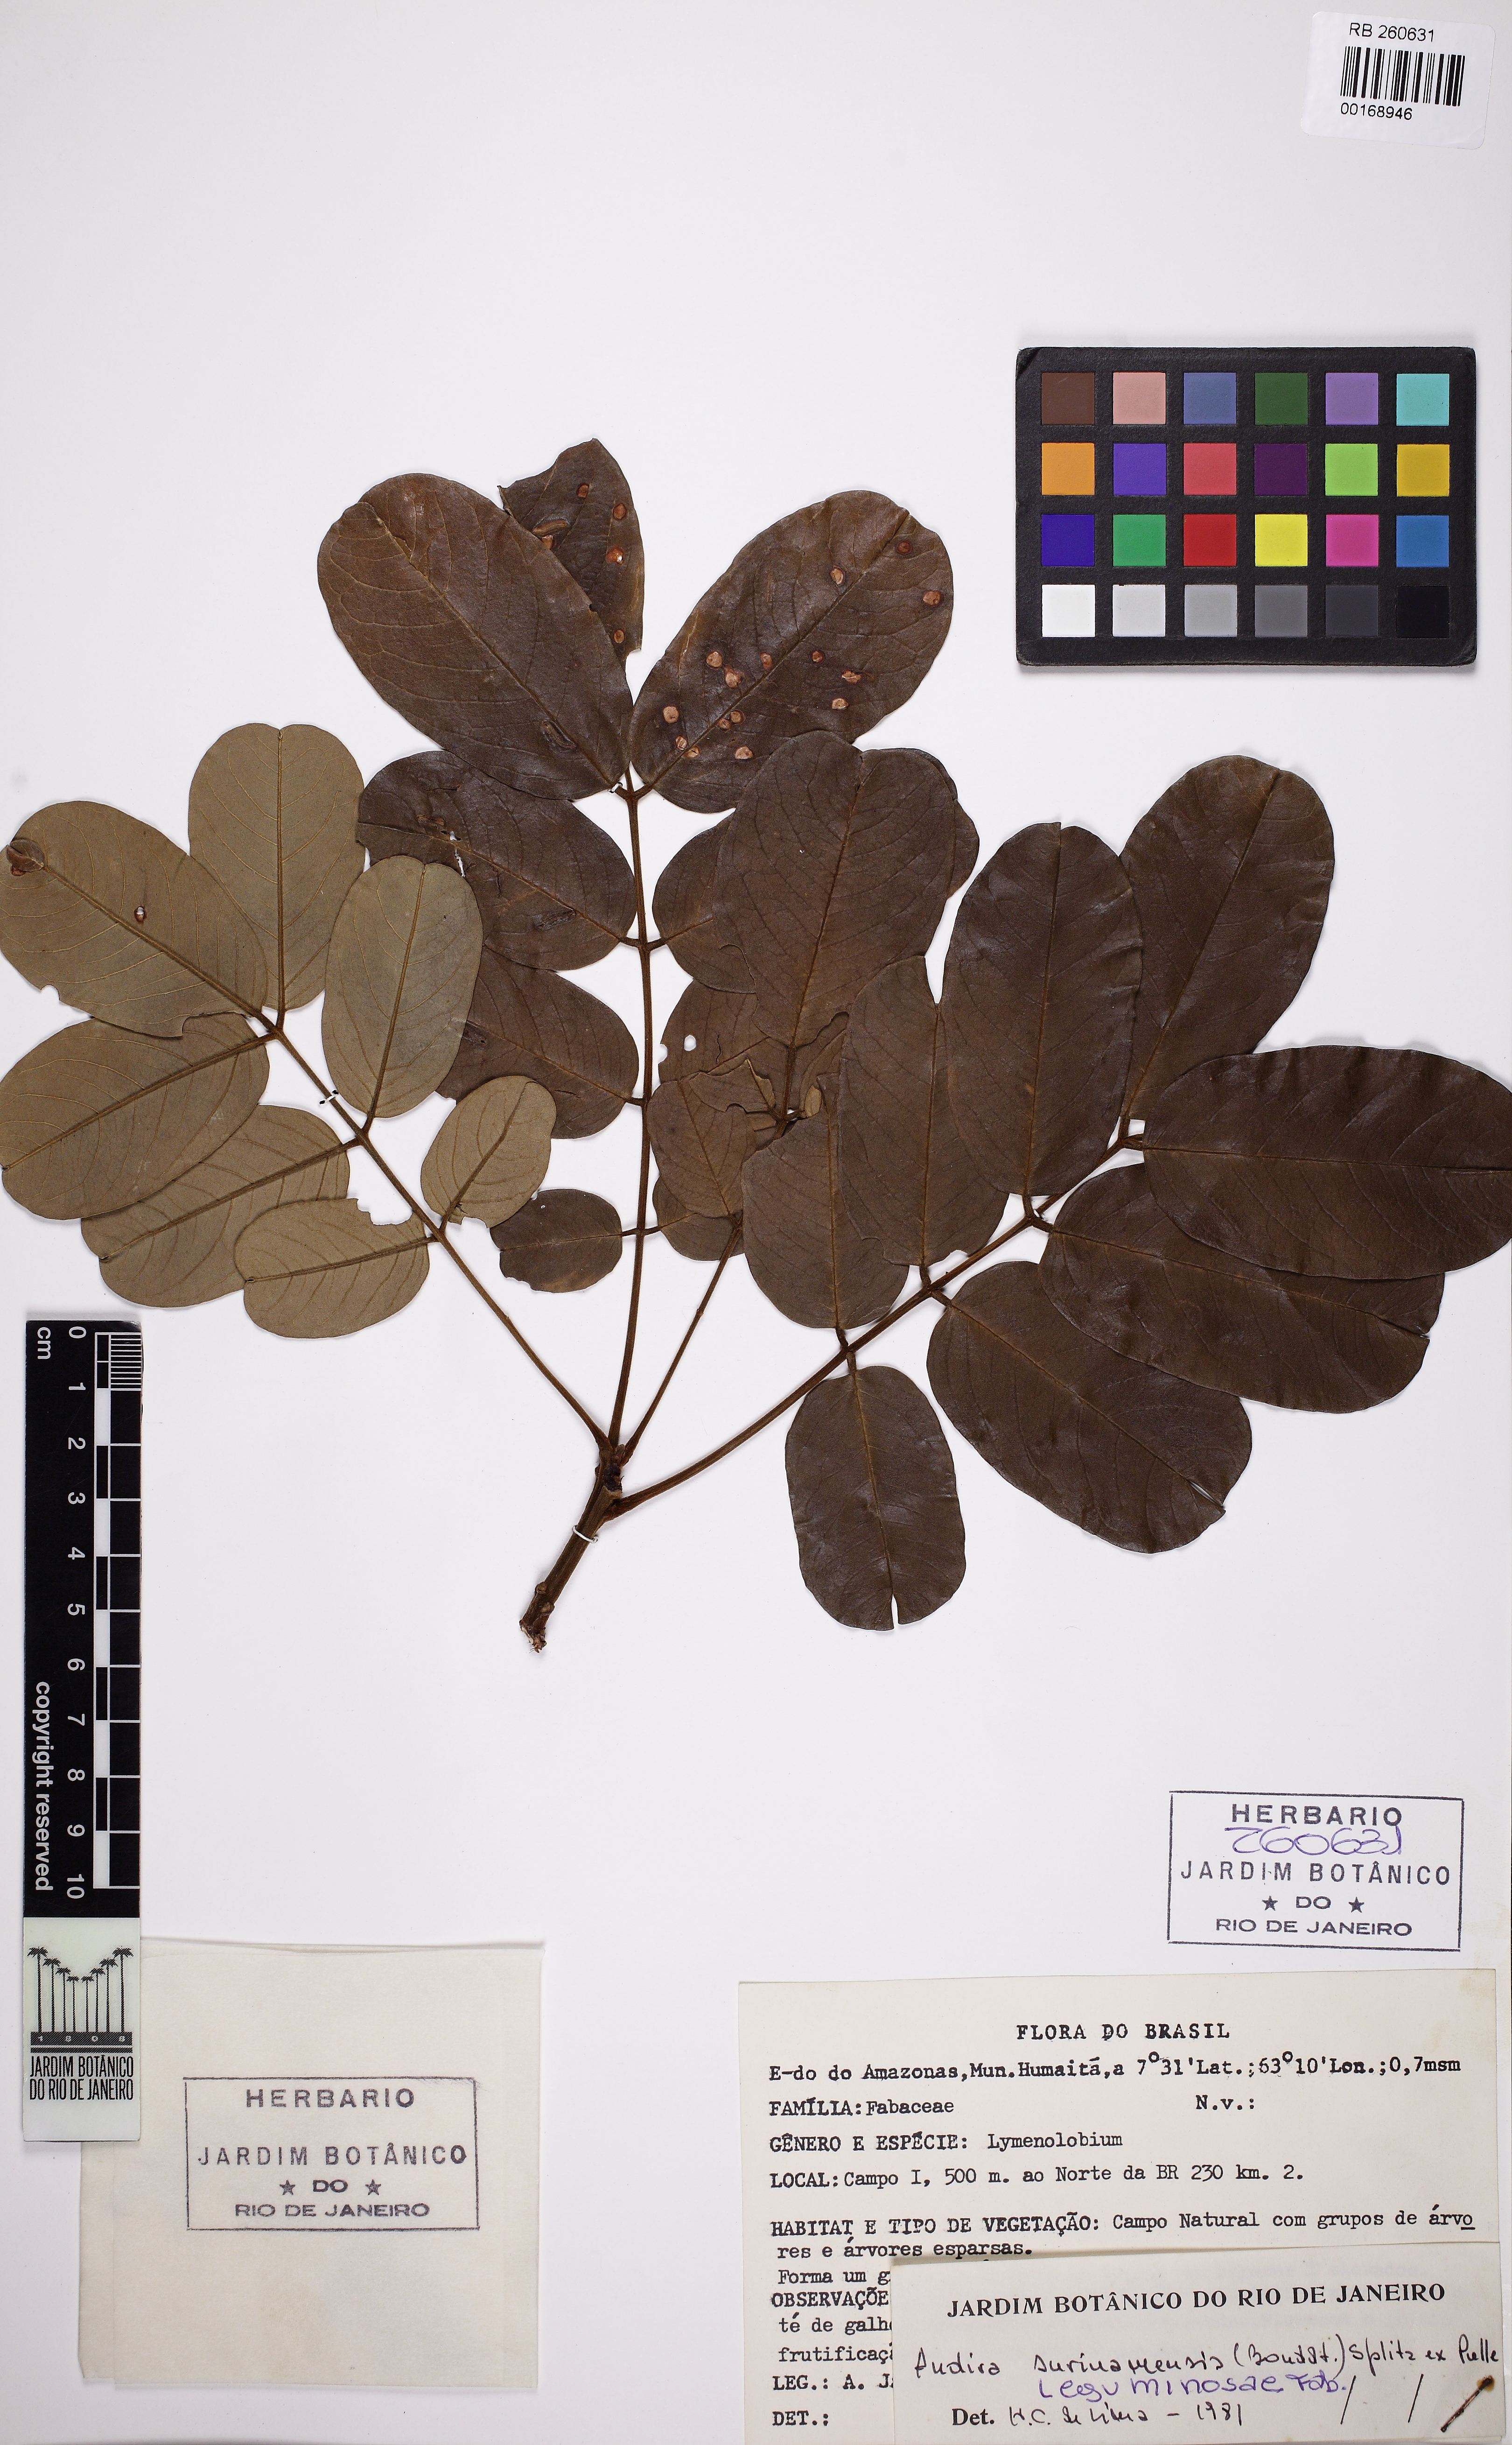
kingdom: Plantae
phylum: Tracheophyta
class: Magnoliopsida
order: Fabales
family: Fabaceae
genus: Andira
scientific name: Andira surinamensis
